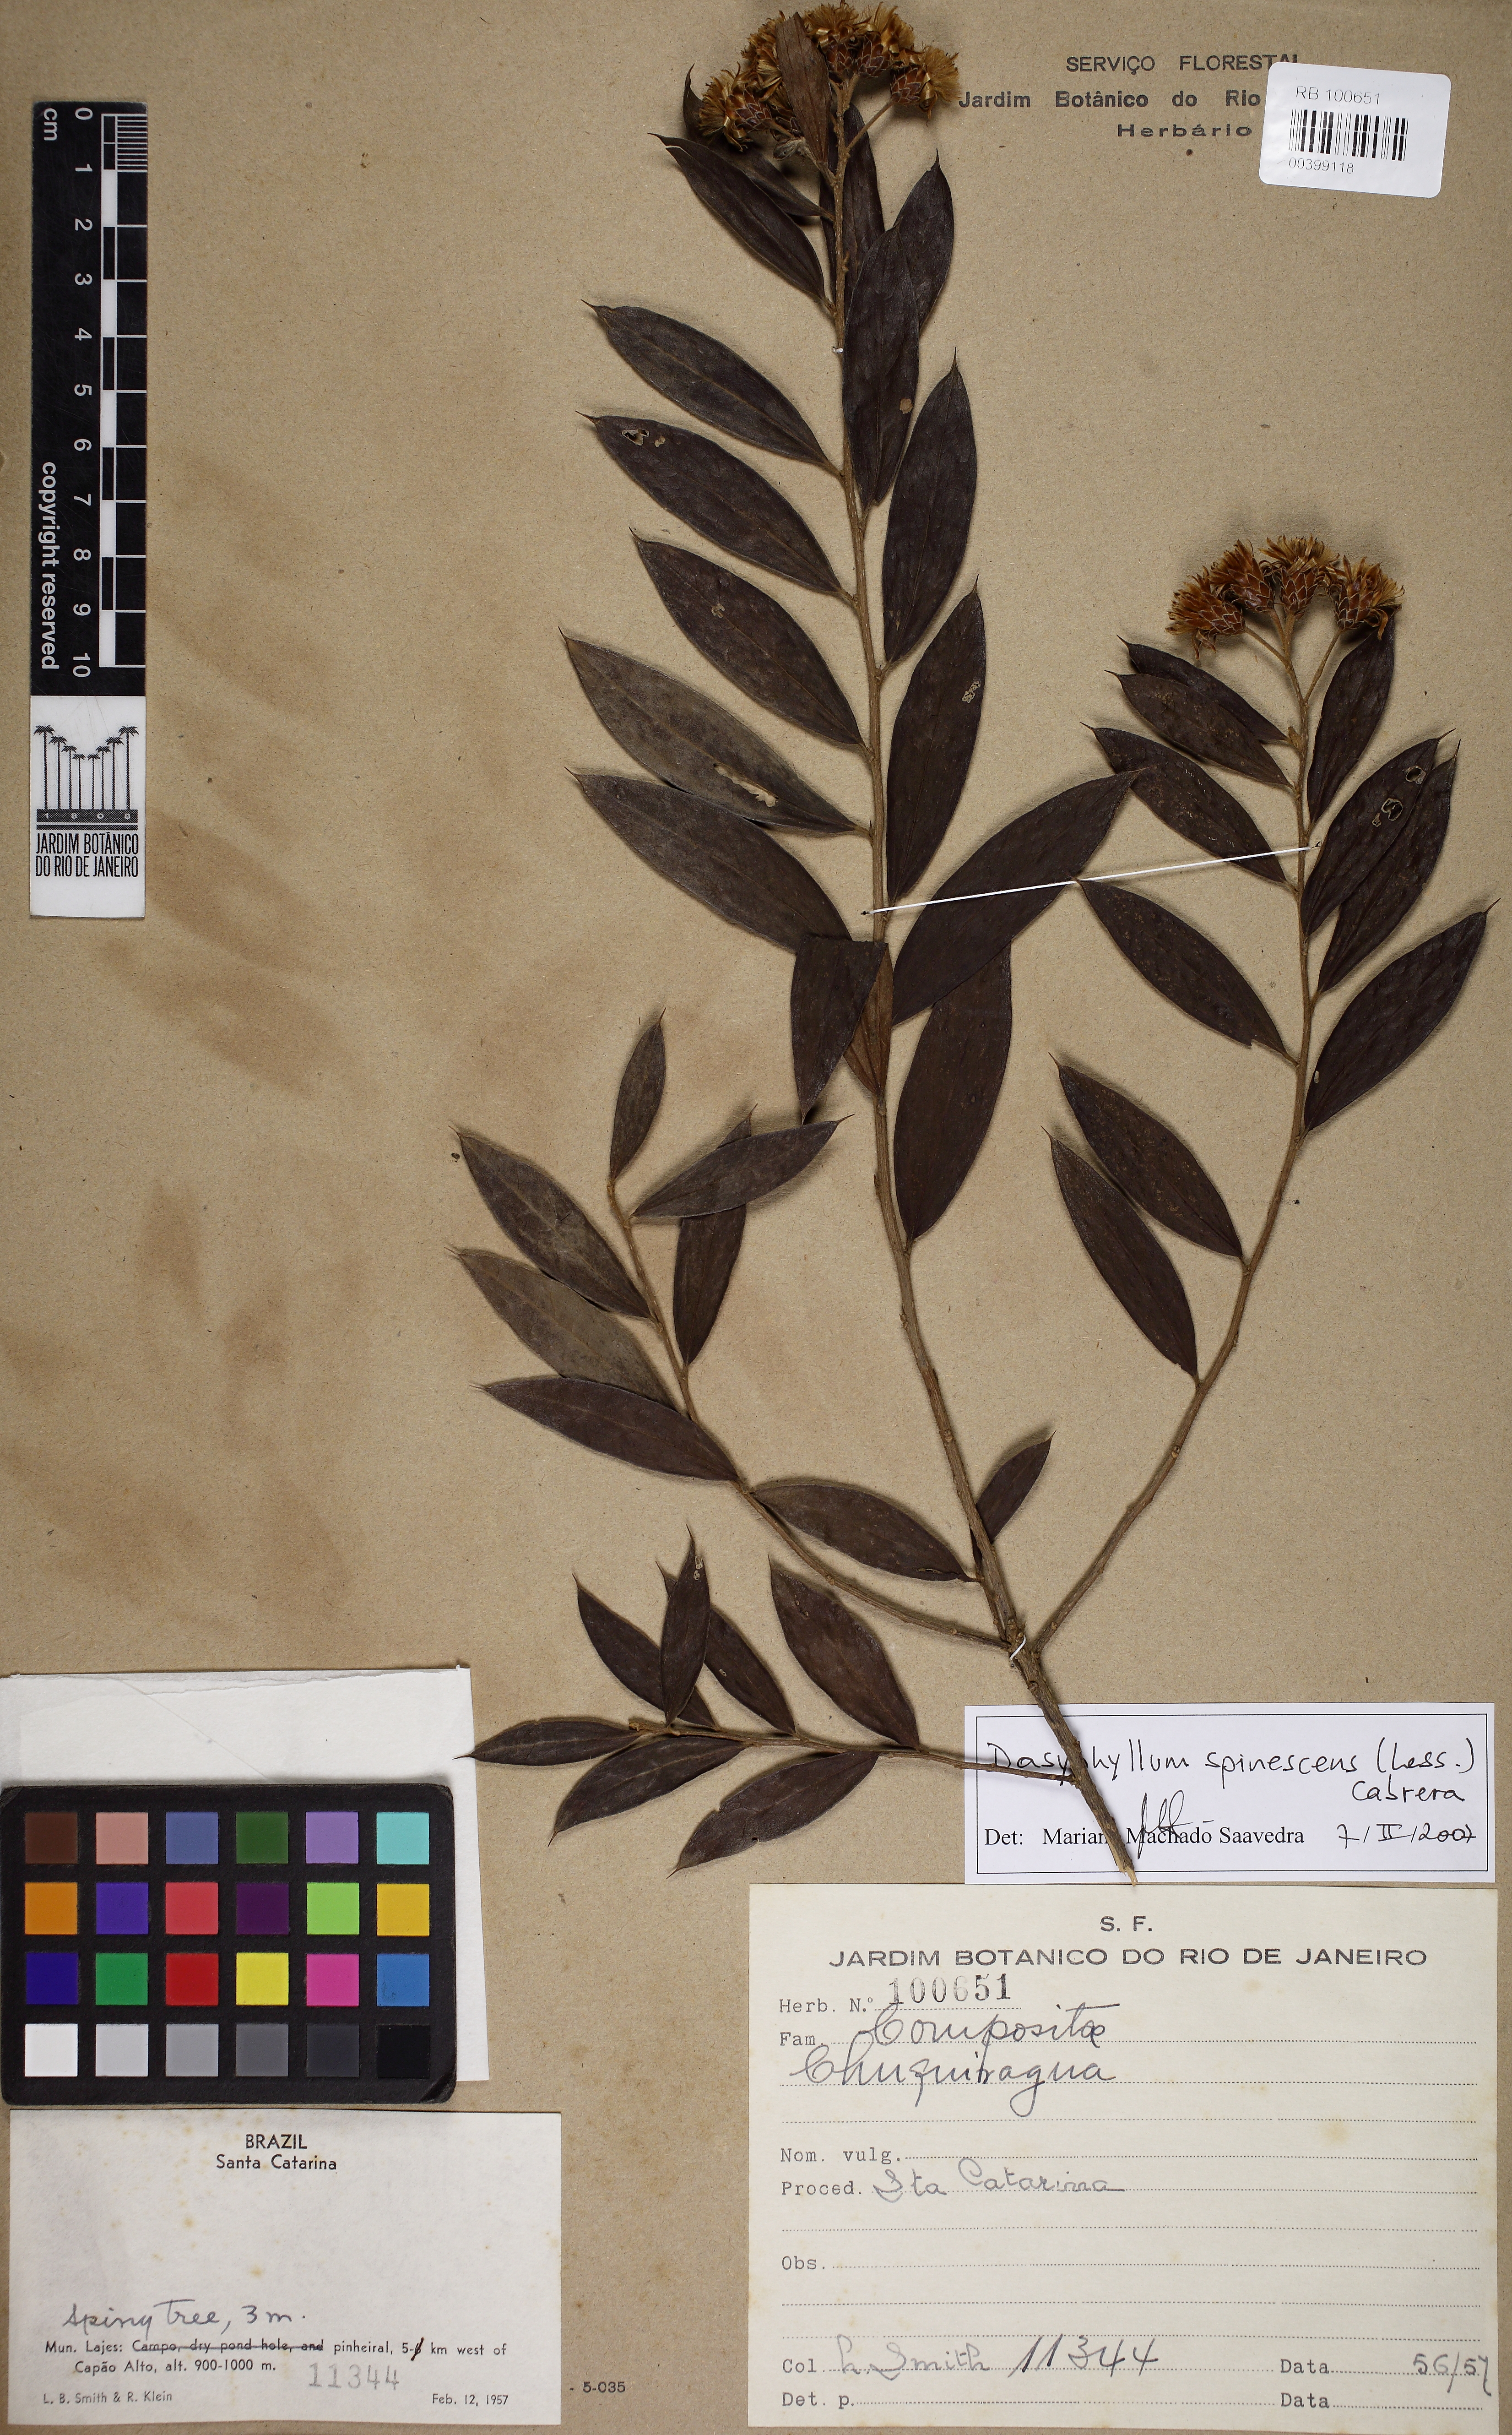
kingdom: Plantae
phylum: Tracheophyta
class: Magnoliopsida
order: Asterales
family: Asteraceae
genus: Dasyphyllum
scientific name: Dasyphyllum spinescens
